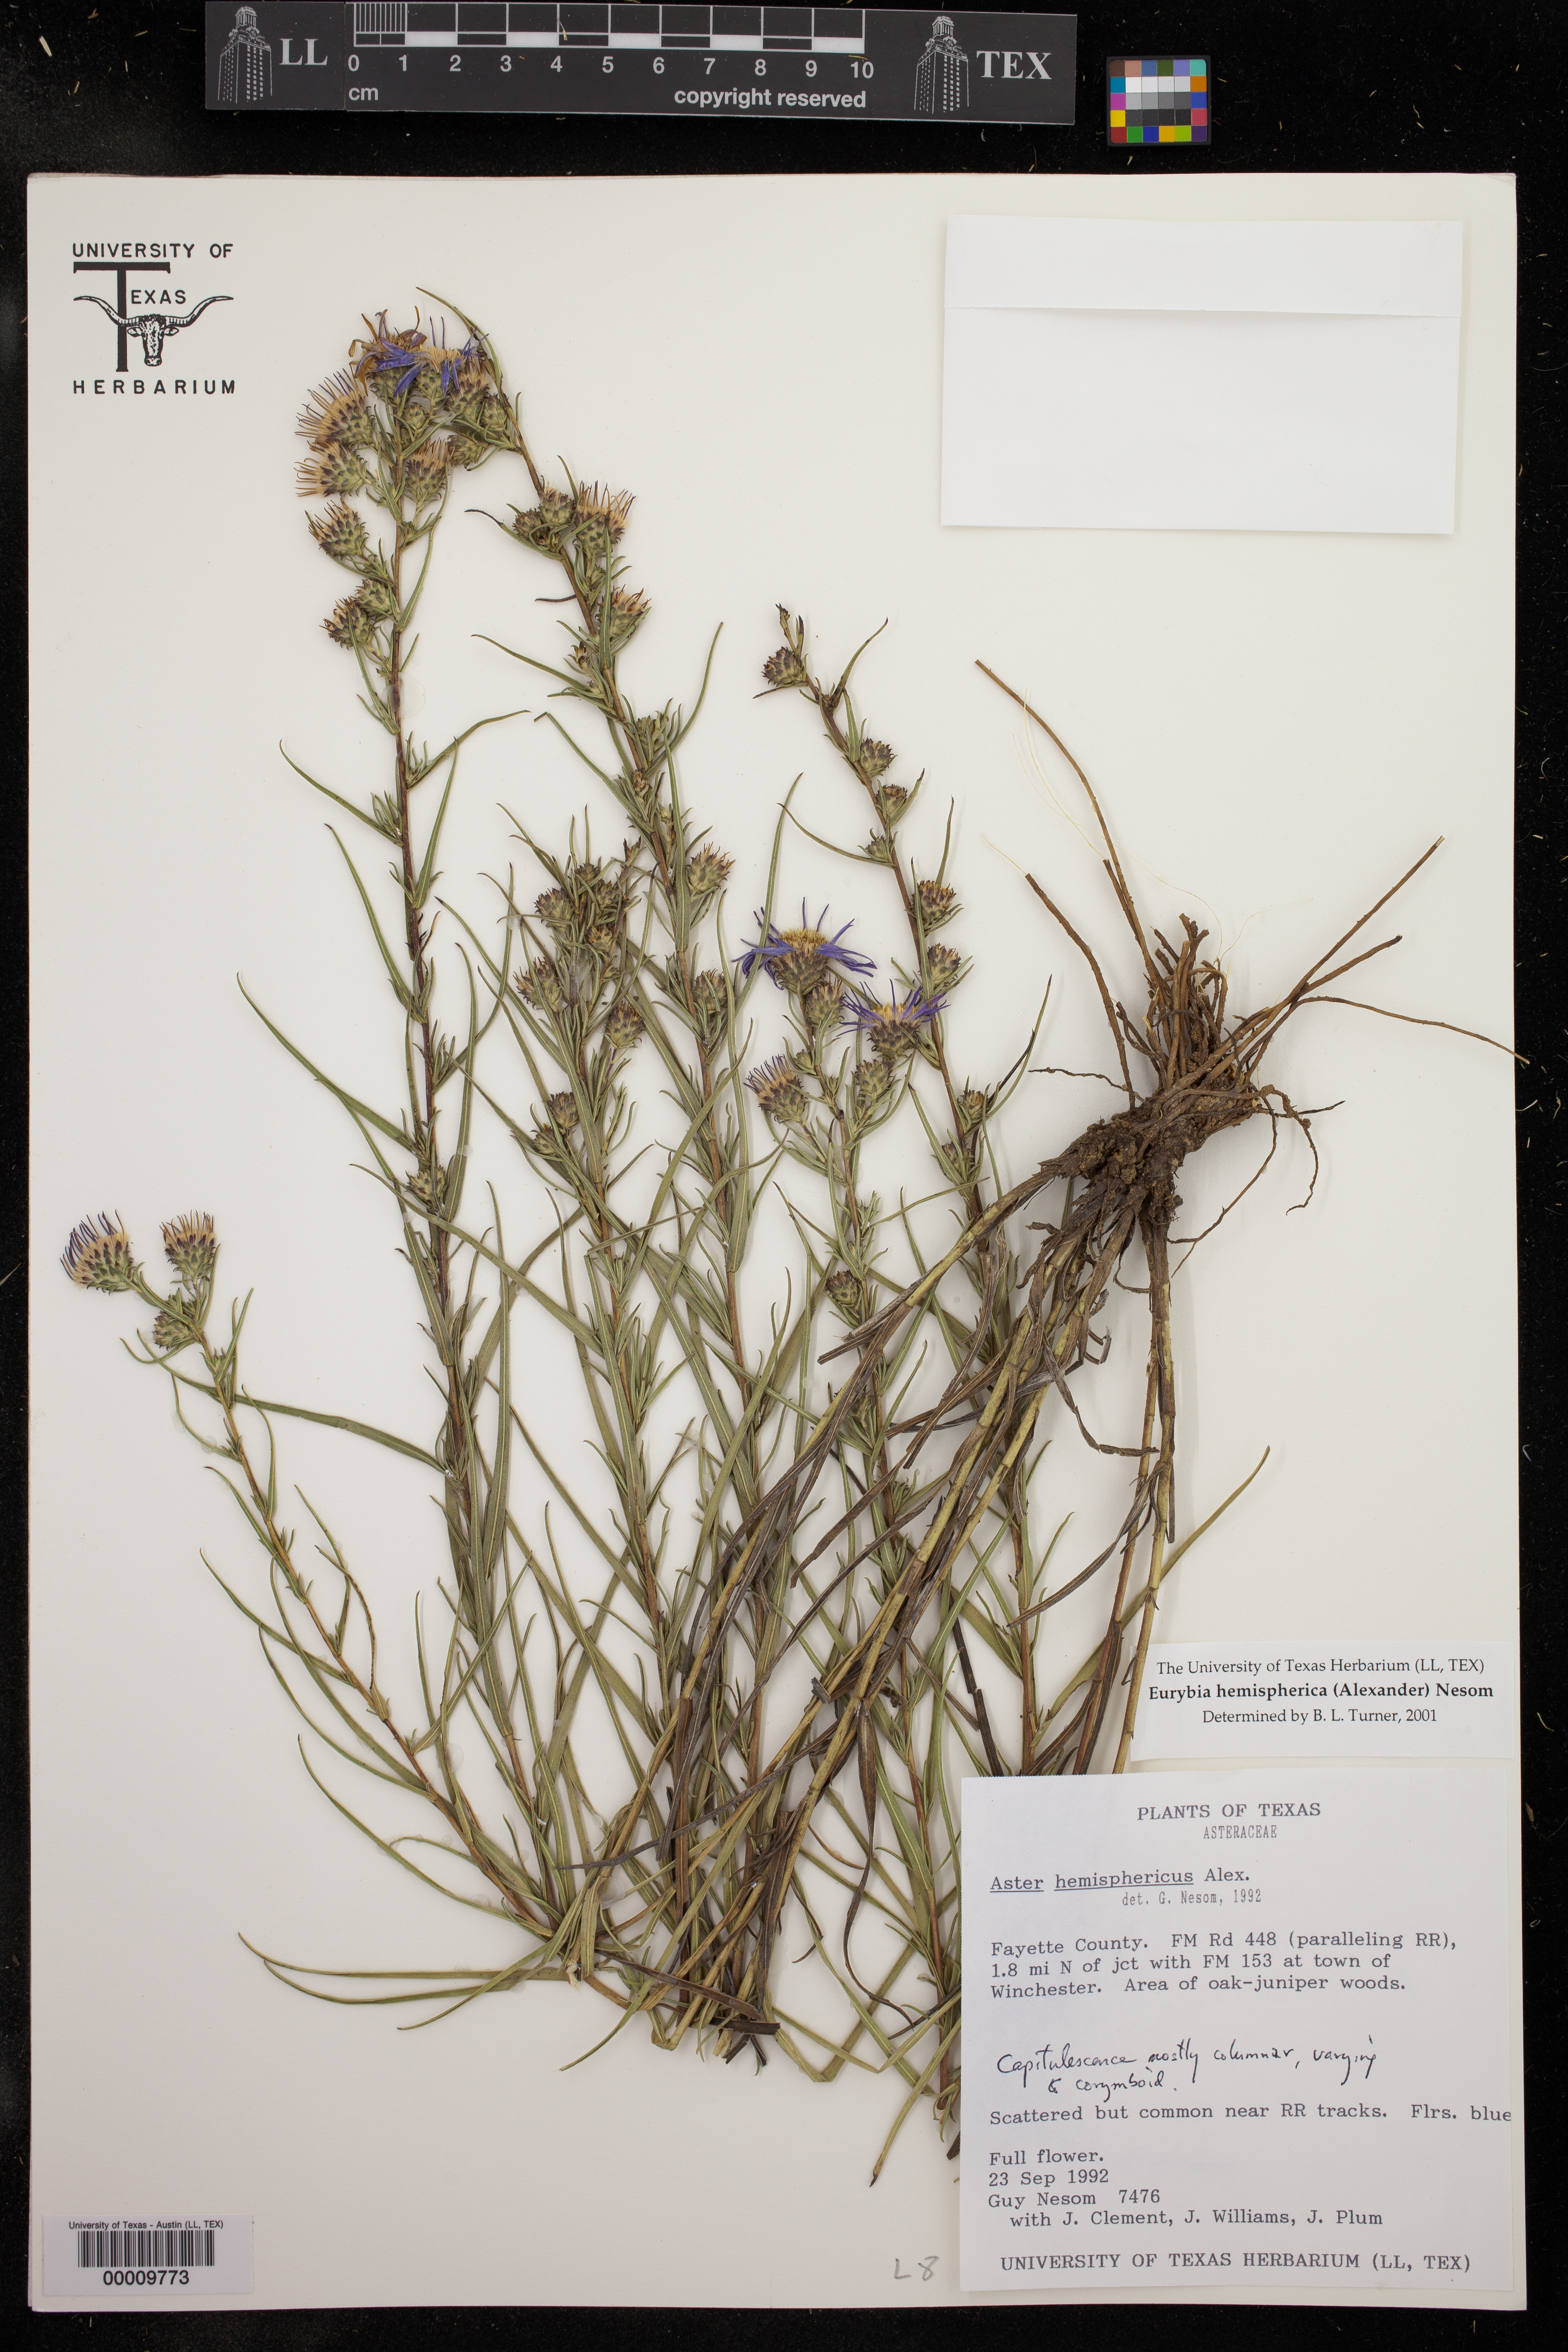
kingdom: Plantae
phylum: Tracheophyta
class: Magnoliopsida
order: Asterales
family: Asteraceae
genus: Eurybia
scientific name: Eurybia hemispherica
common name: Showy aster
